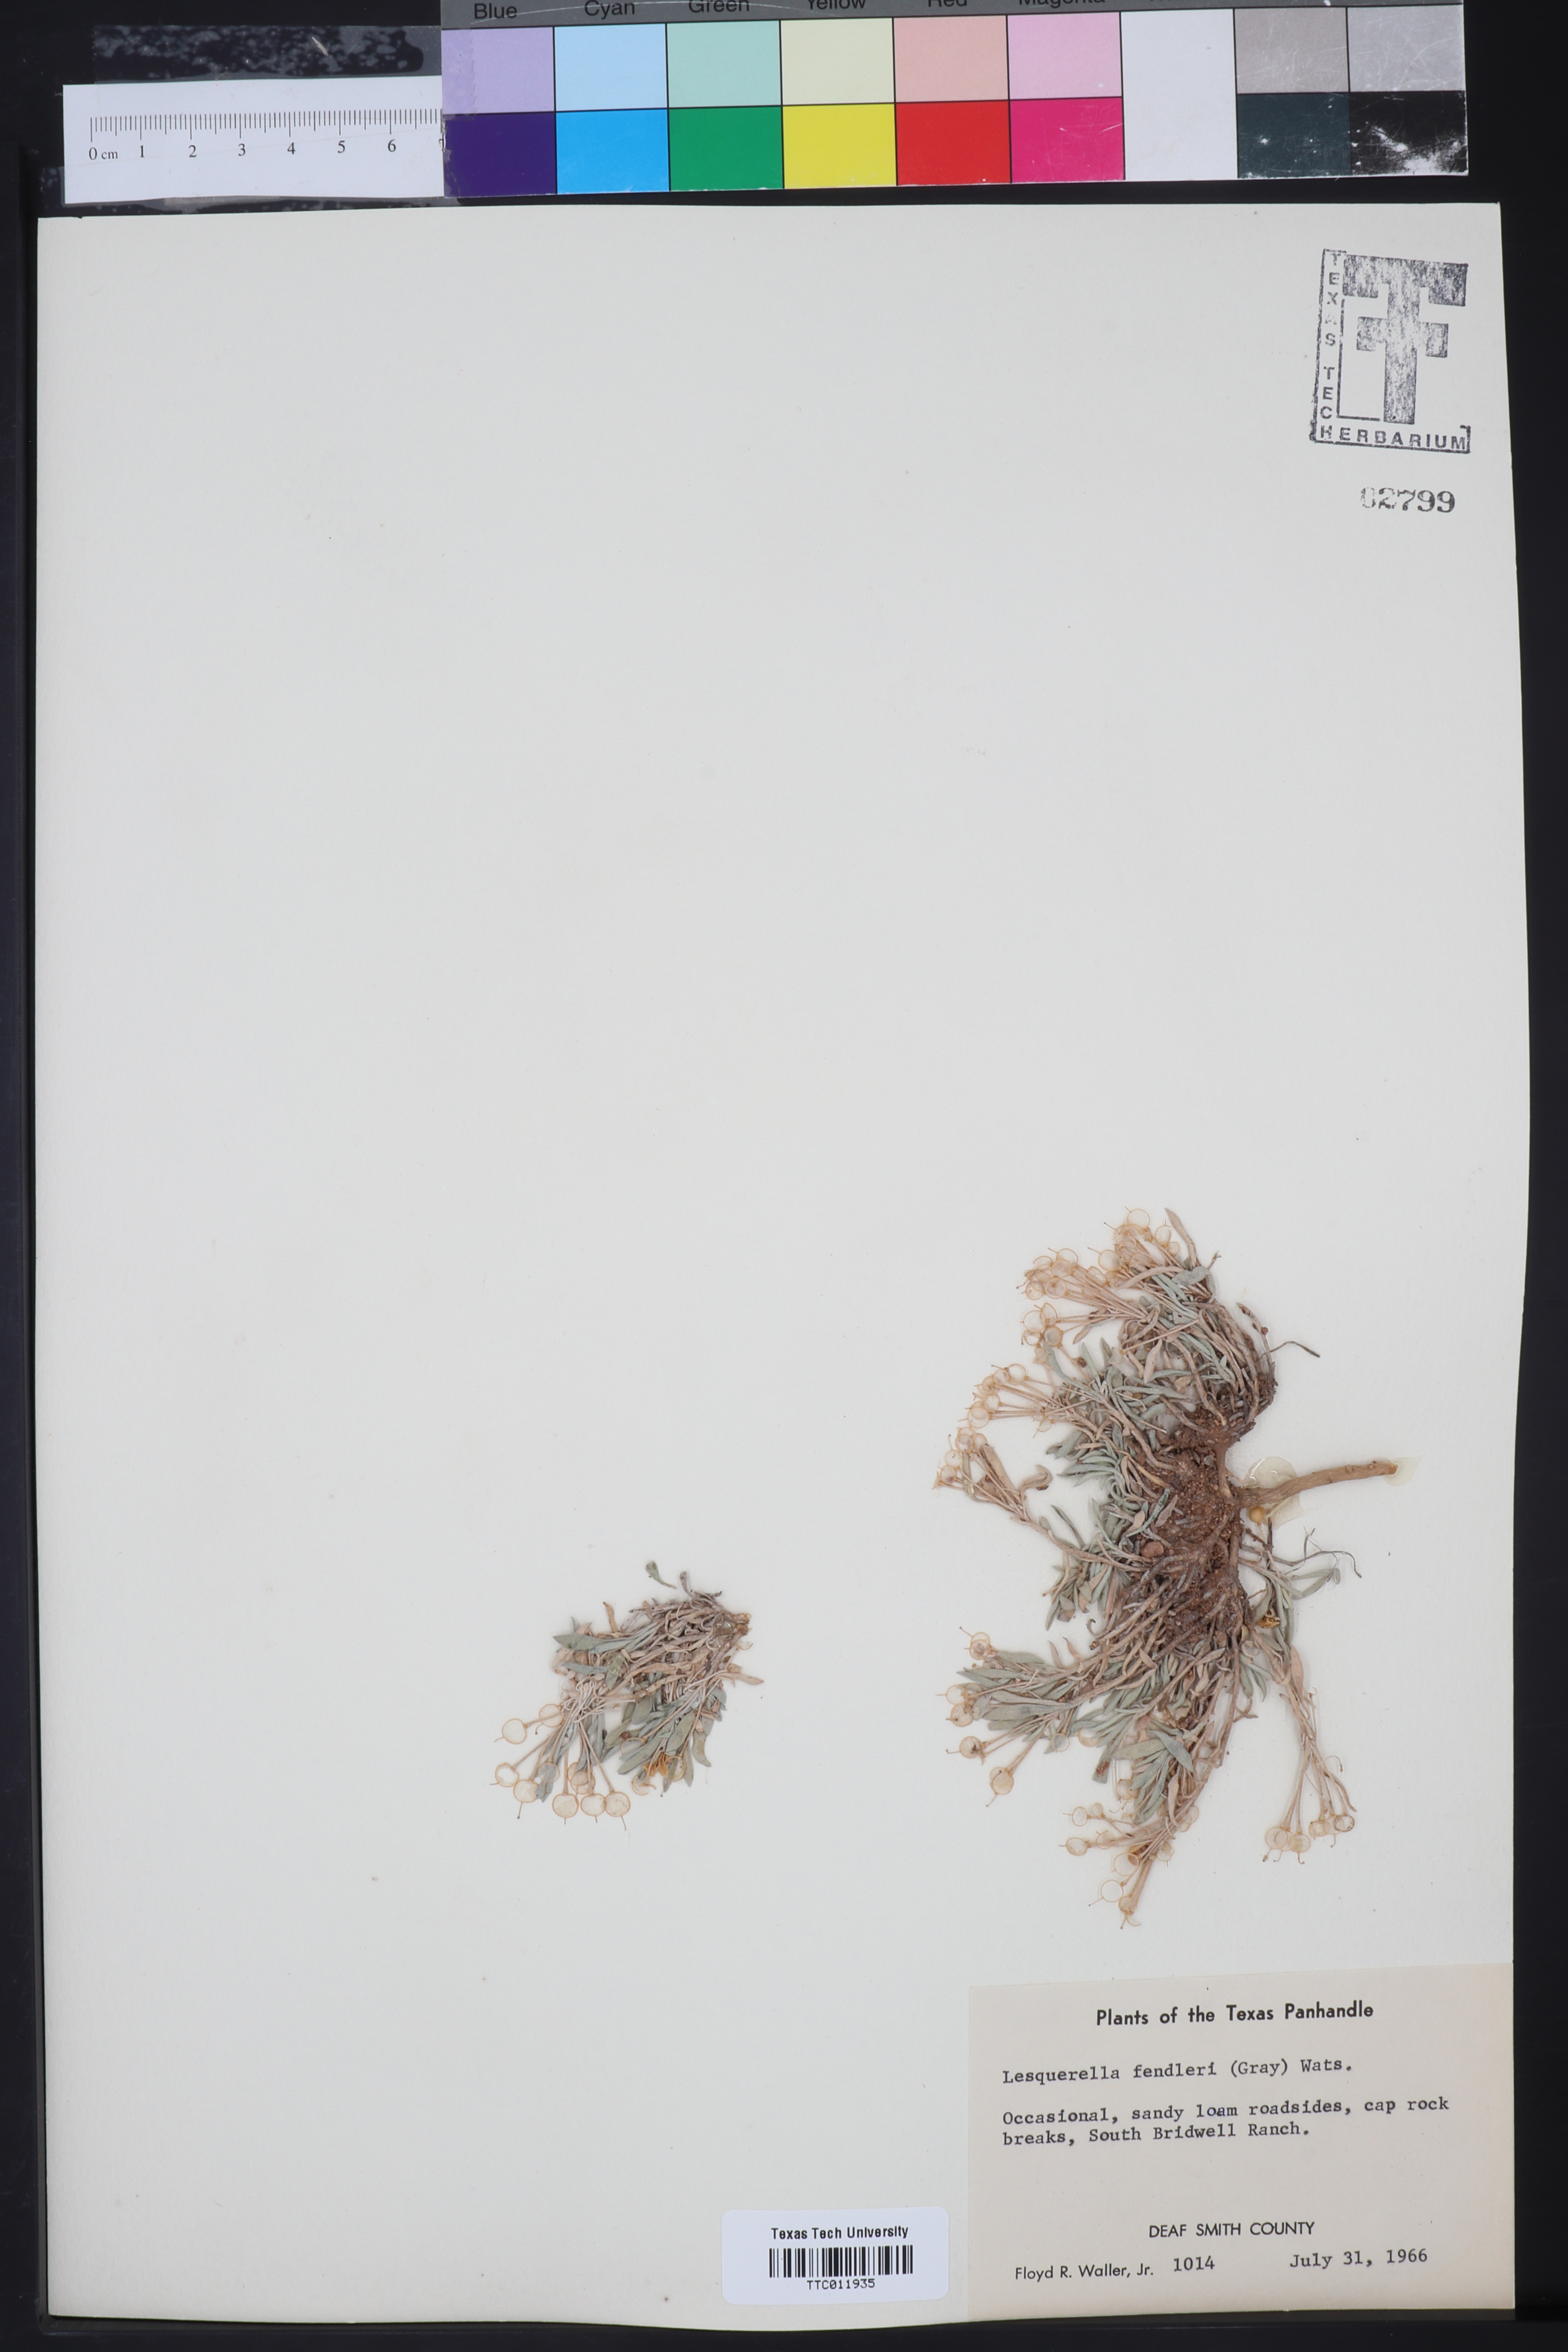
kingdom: Plantae
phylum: Tracheophyta
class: Magnoliopsida
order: Brassicales
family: Brassicaceae
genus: Physaria
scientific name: Physaria fendleri
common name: Fendler's bladderpod
